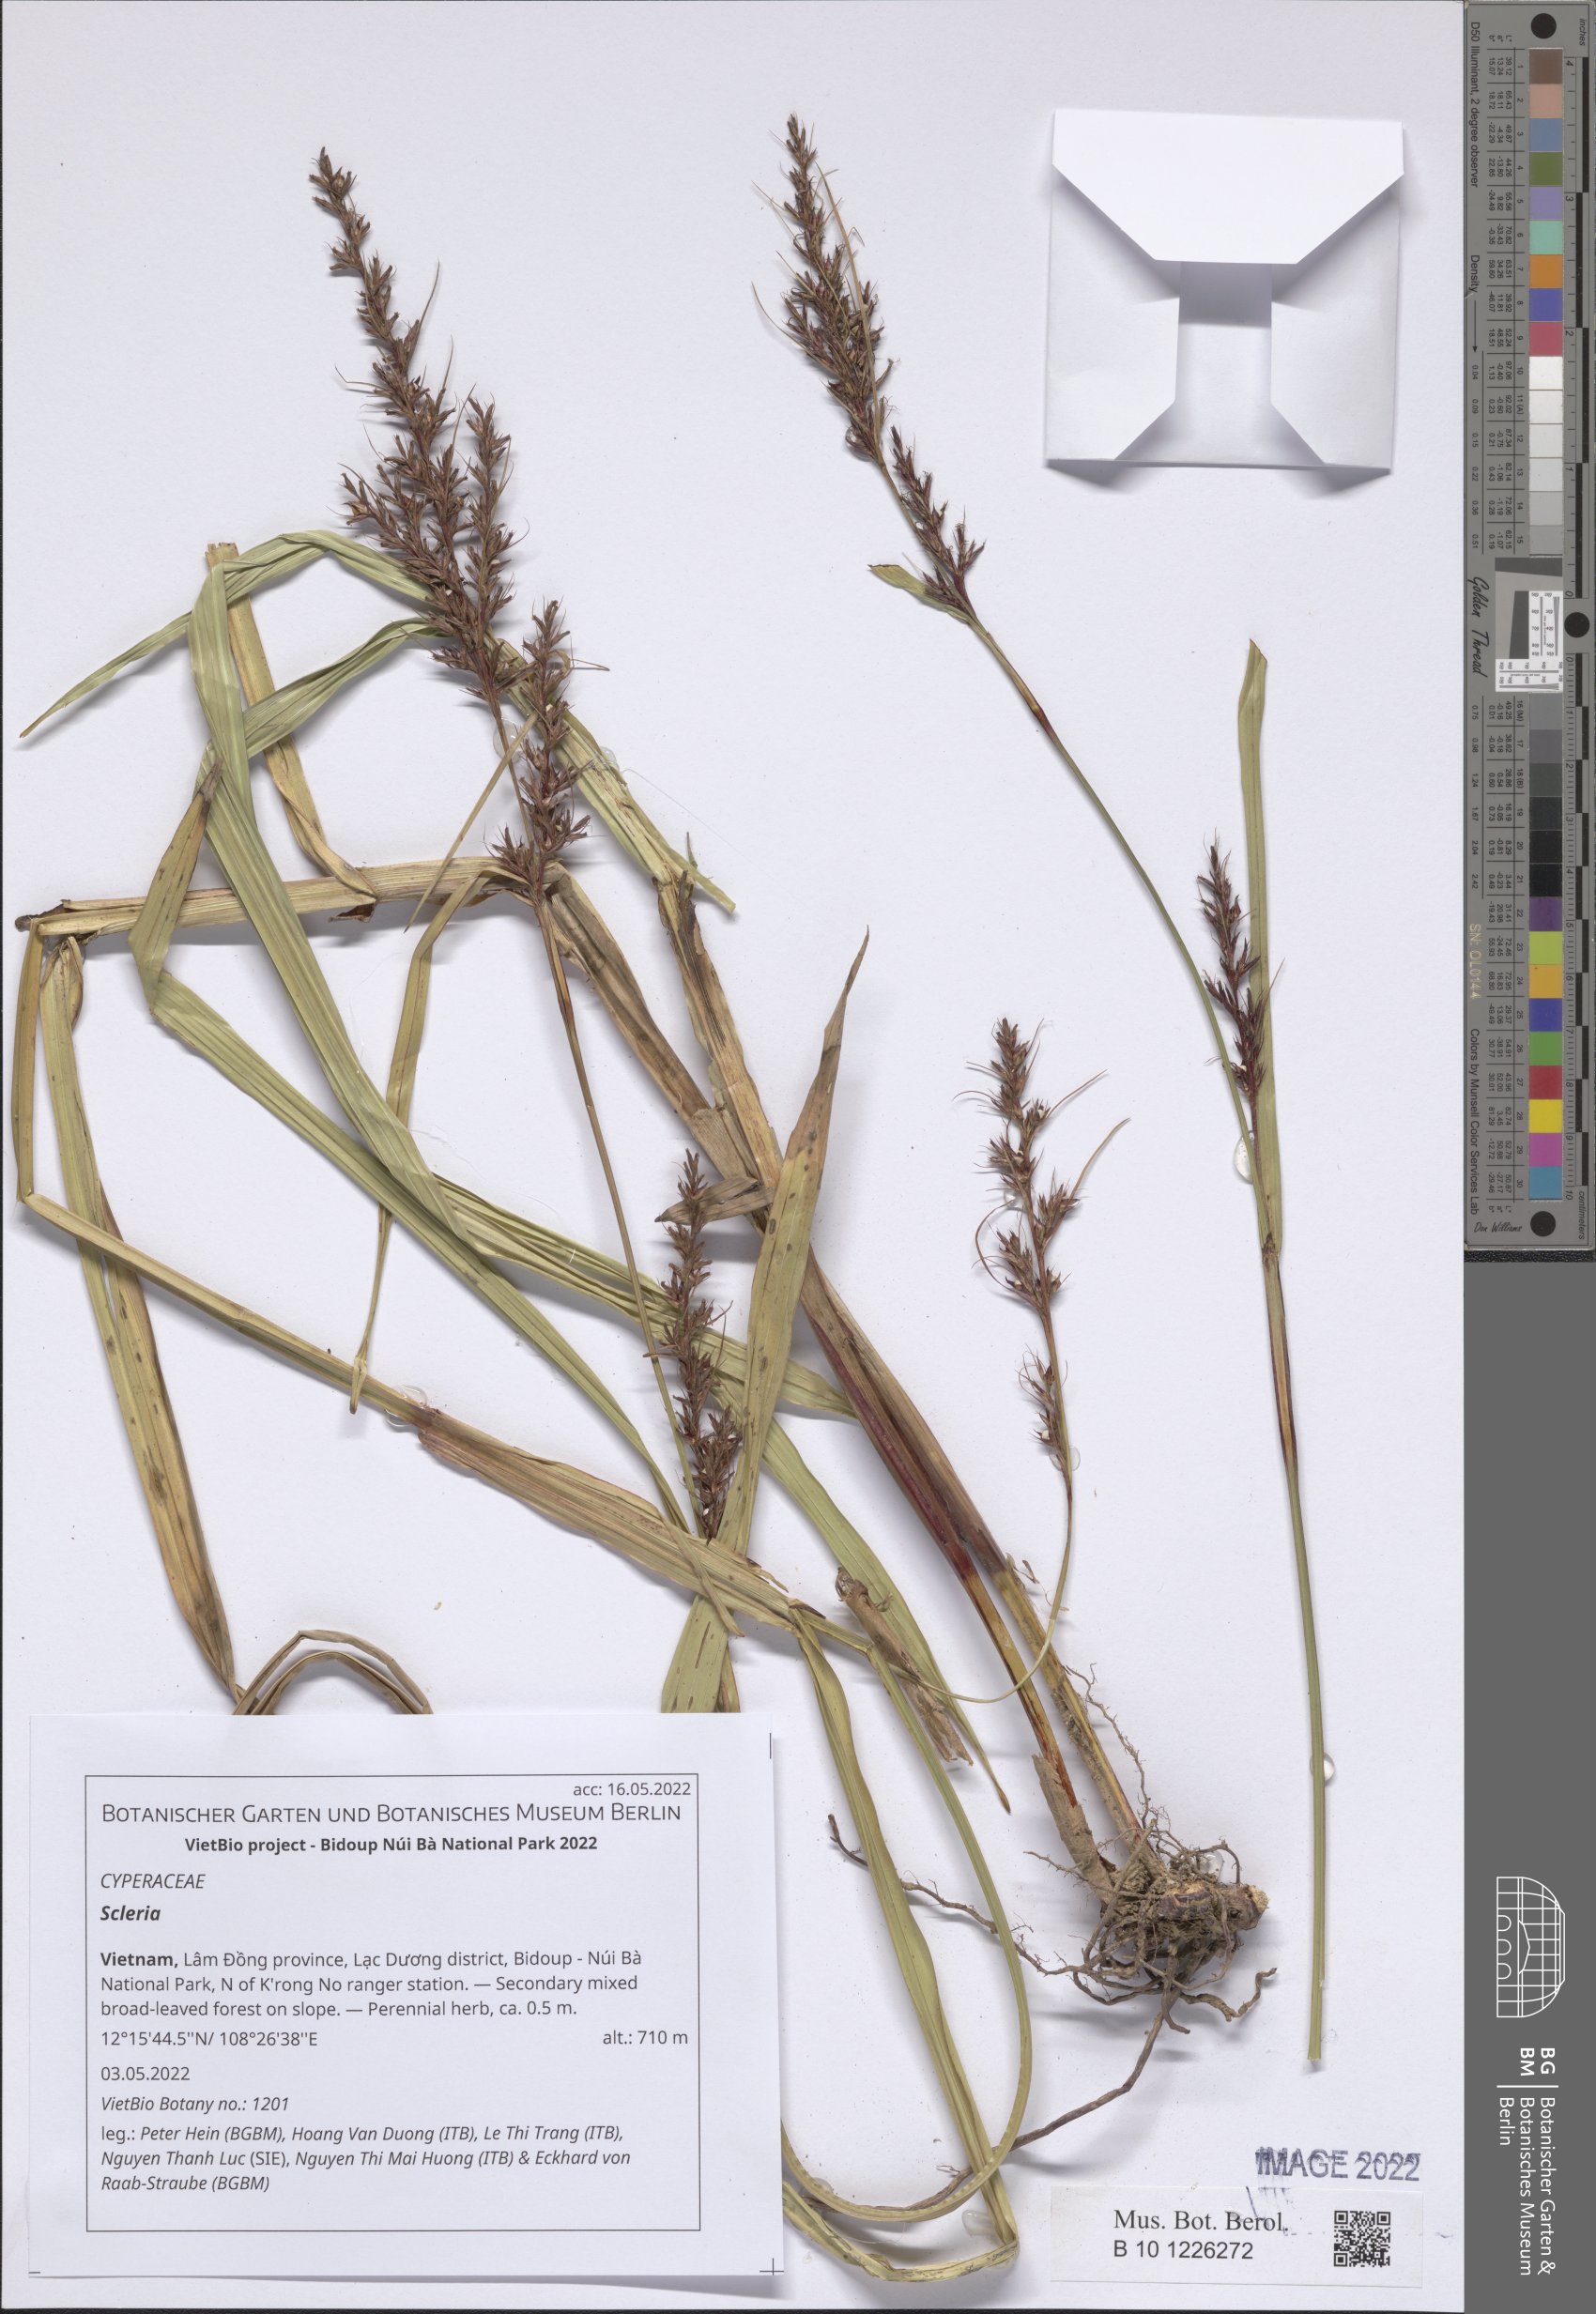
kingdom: Plantae
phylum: Tracheophyta
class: Liliopsida
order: Poales
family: Cyperaceae
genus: Scleria
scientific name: Scleria
